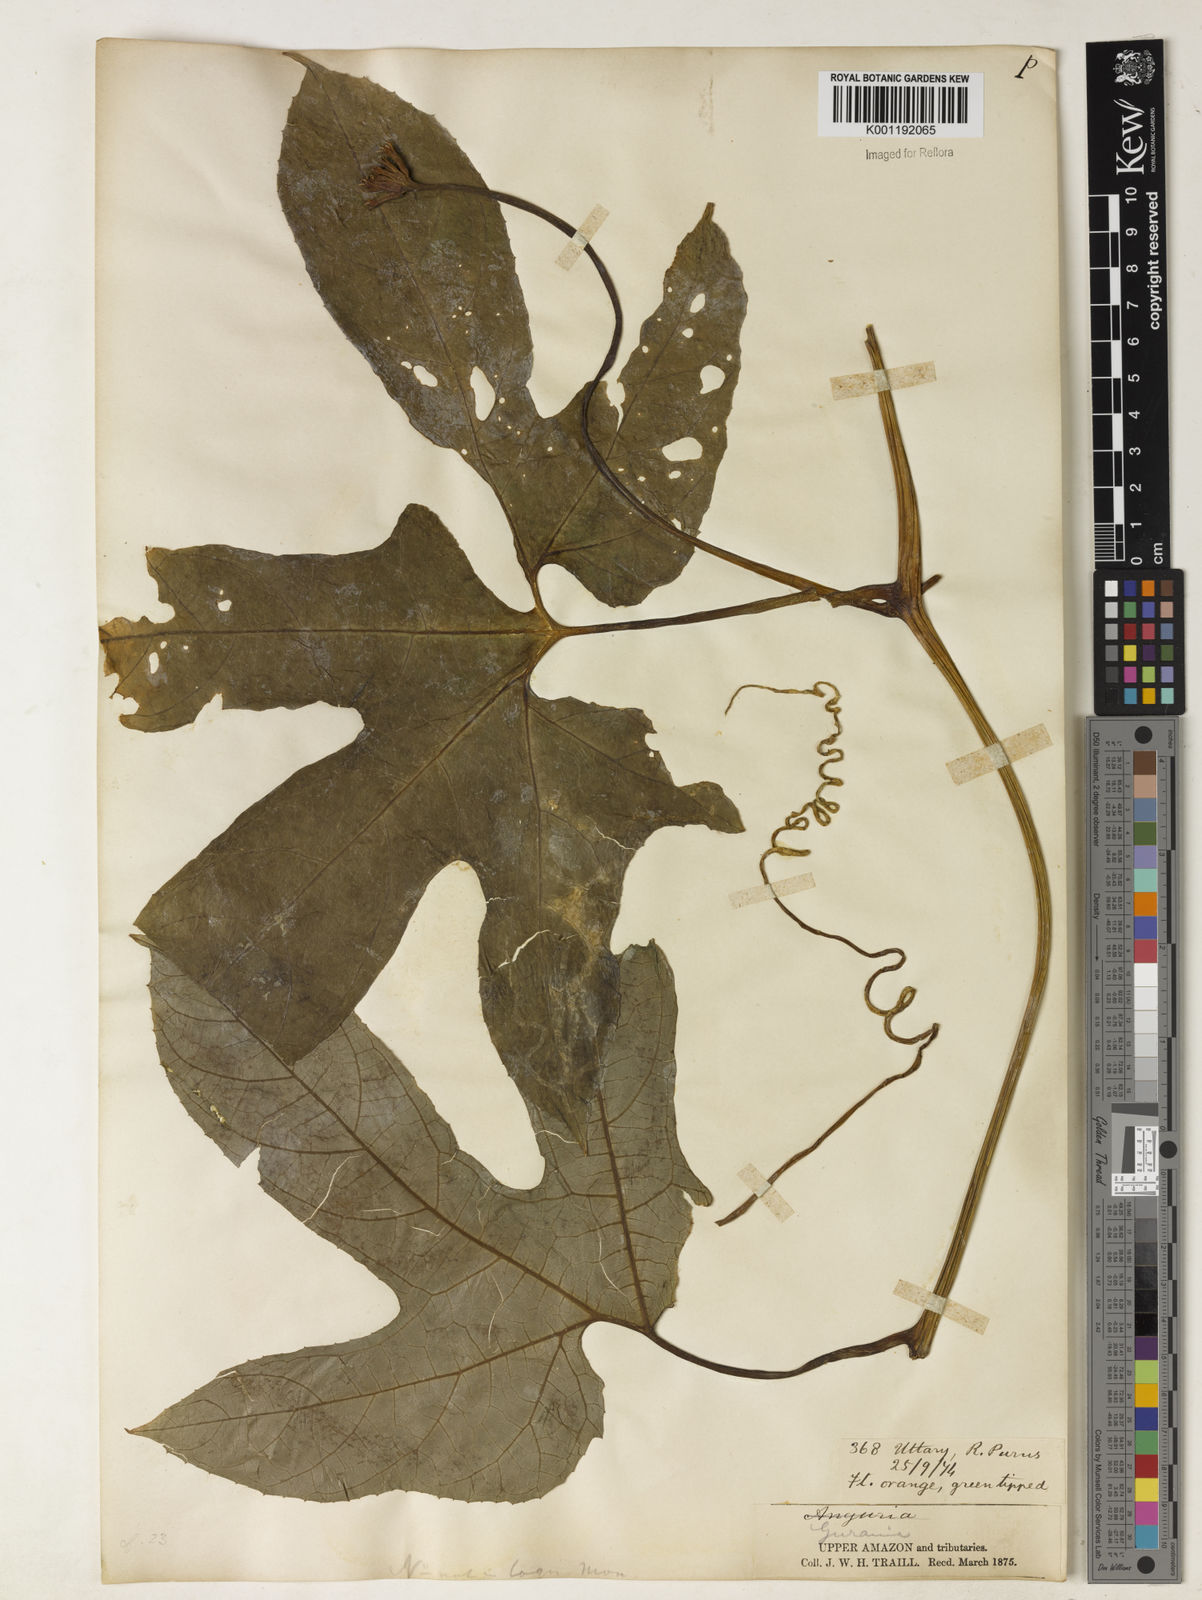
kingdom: Plantae
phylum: Tracheophyta
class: Magnoliopsida
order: Cucurbitales
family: Cucurbitaceae
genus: Gurania
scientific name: Gurania lobata
